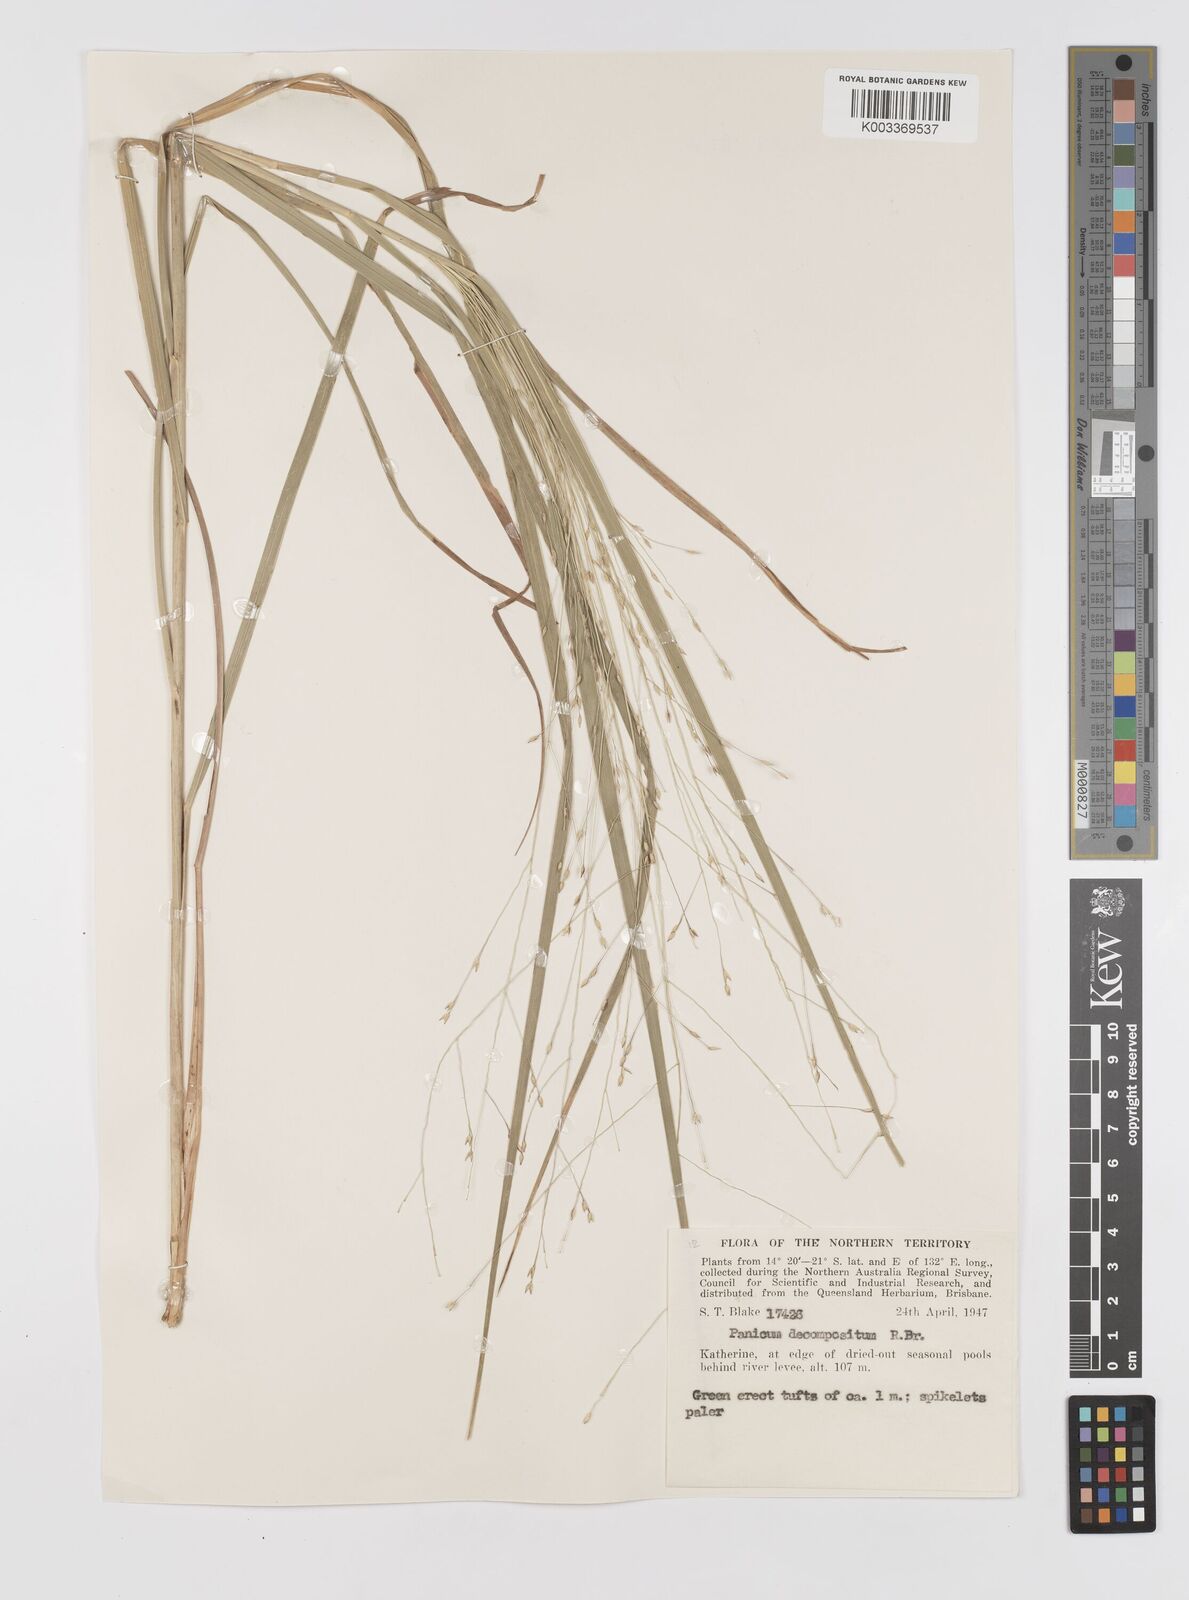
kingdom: Plantae
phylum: Tracheophyta
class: Liliopsida
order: Poales
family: Poaceae
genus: Panicum
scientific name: Panicum decompositum
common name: Australian millet
